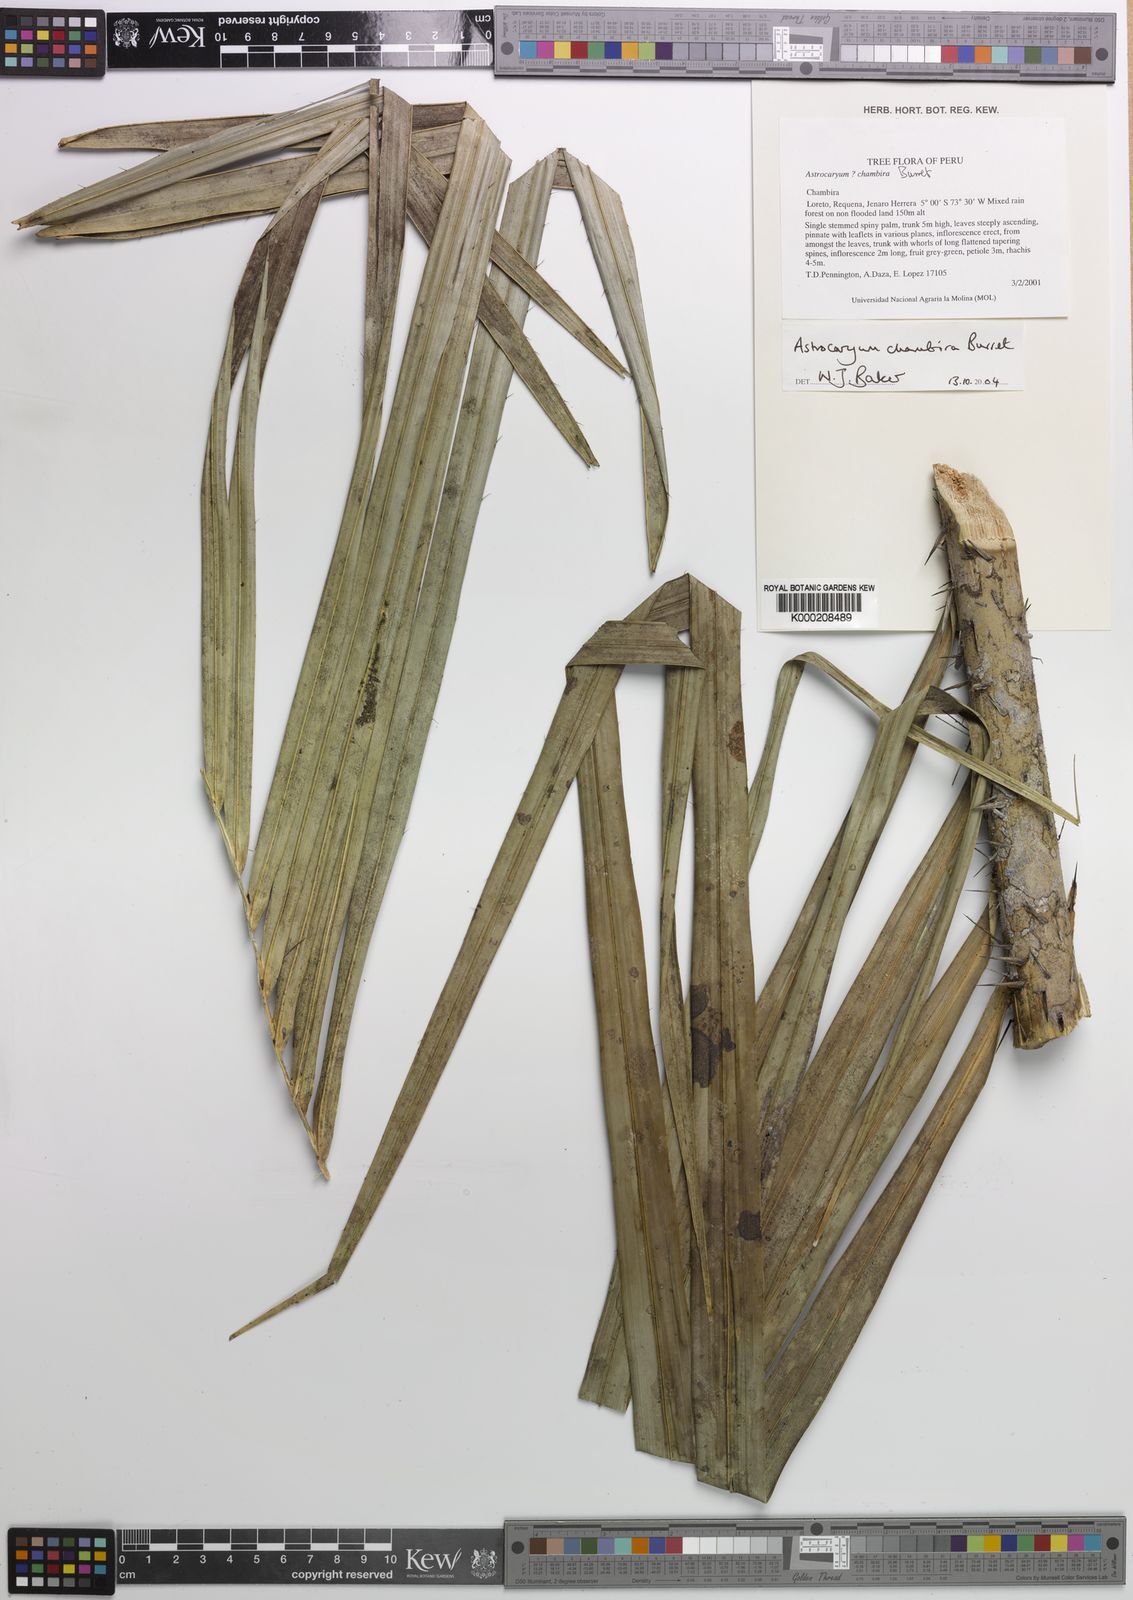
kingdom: Plantae
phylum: Tracheophyta
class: Liliopsida
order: Arecales
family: Arecaceae
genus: Astrocaryum
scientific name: Astrocaryum chambira
